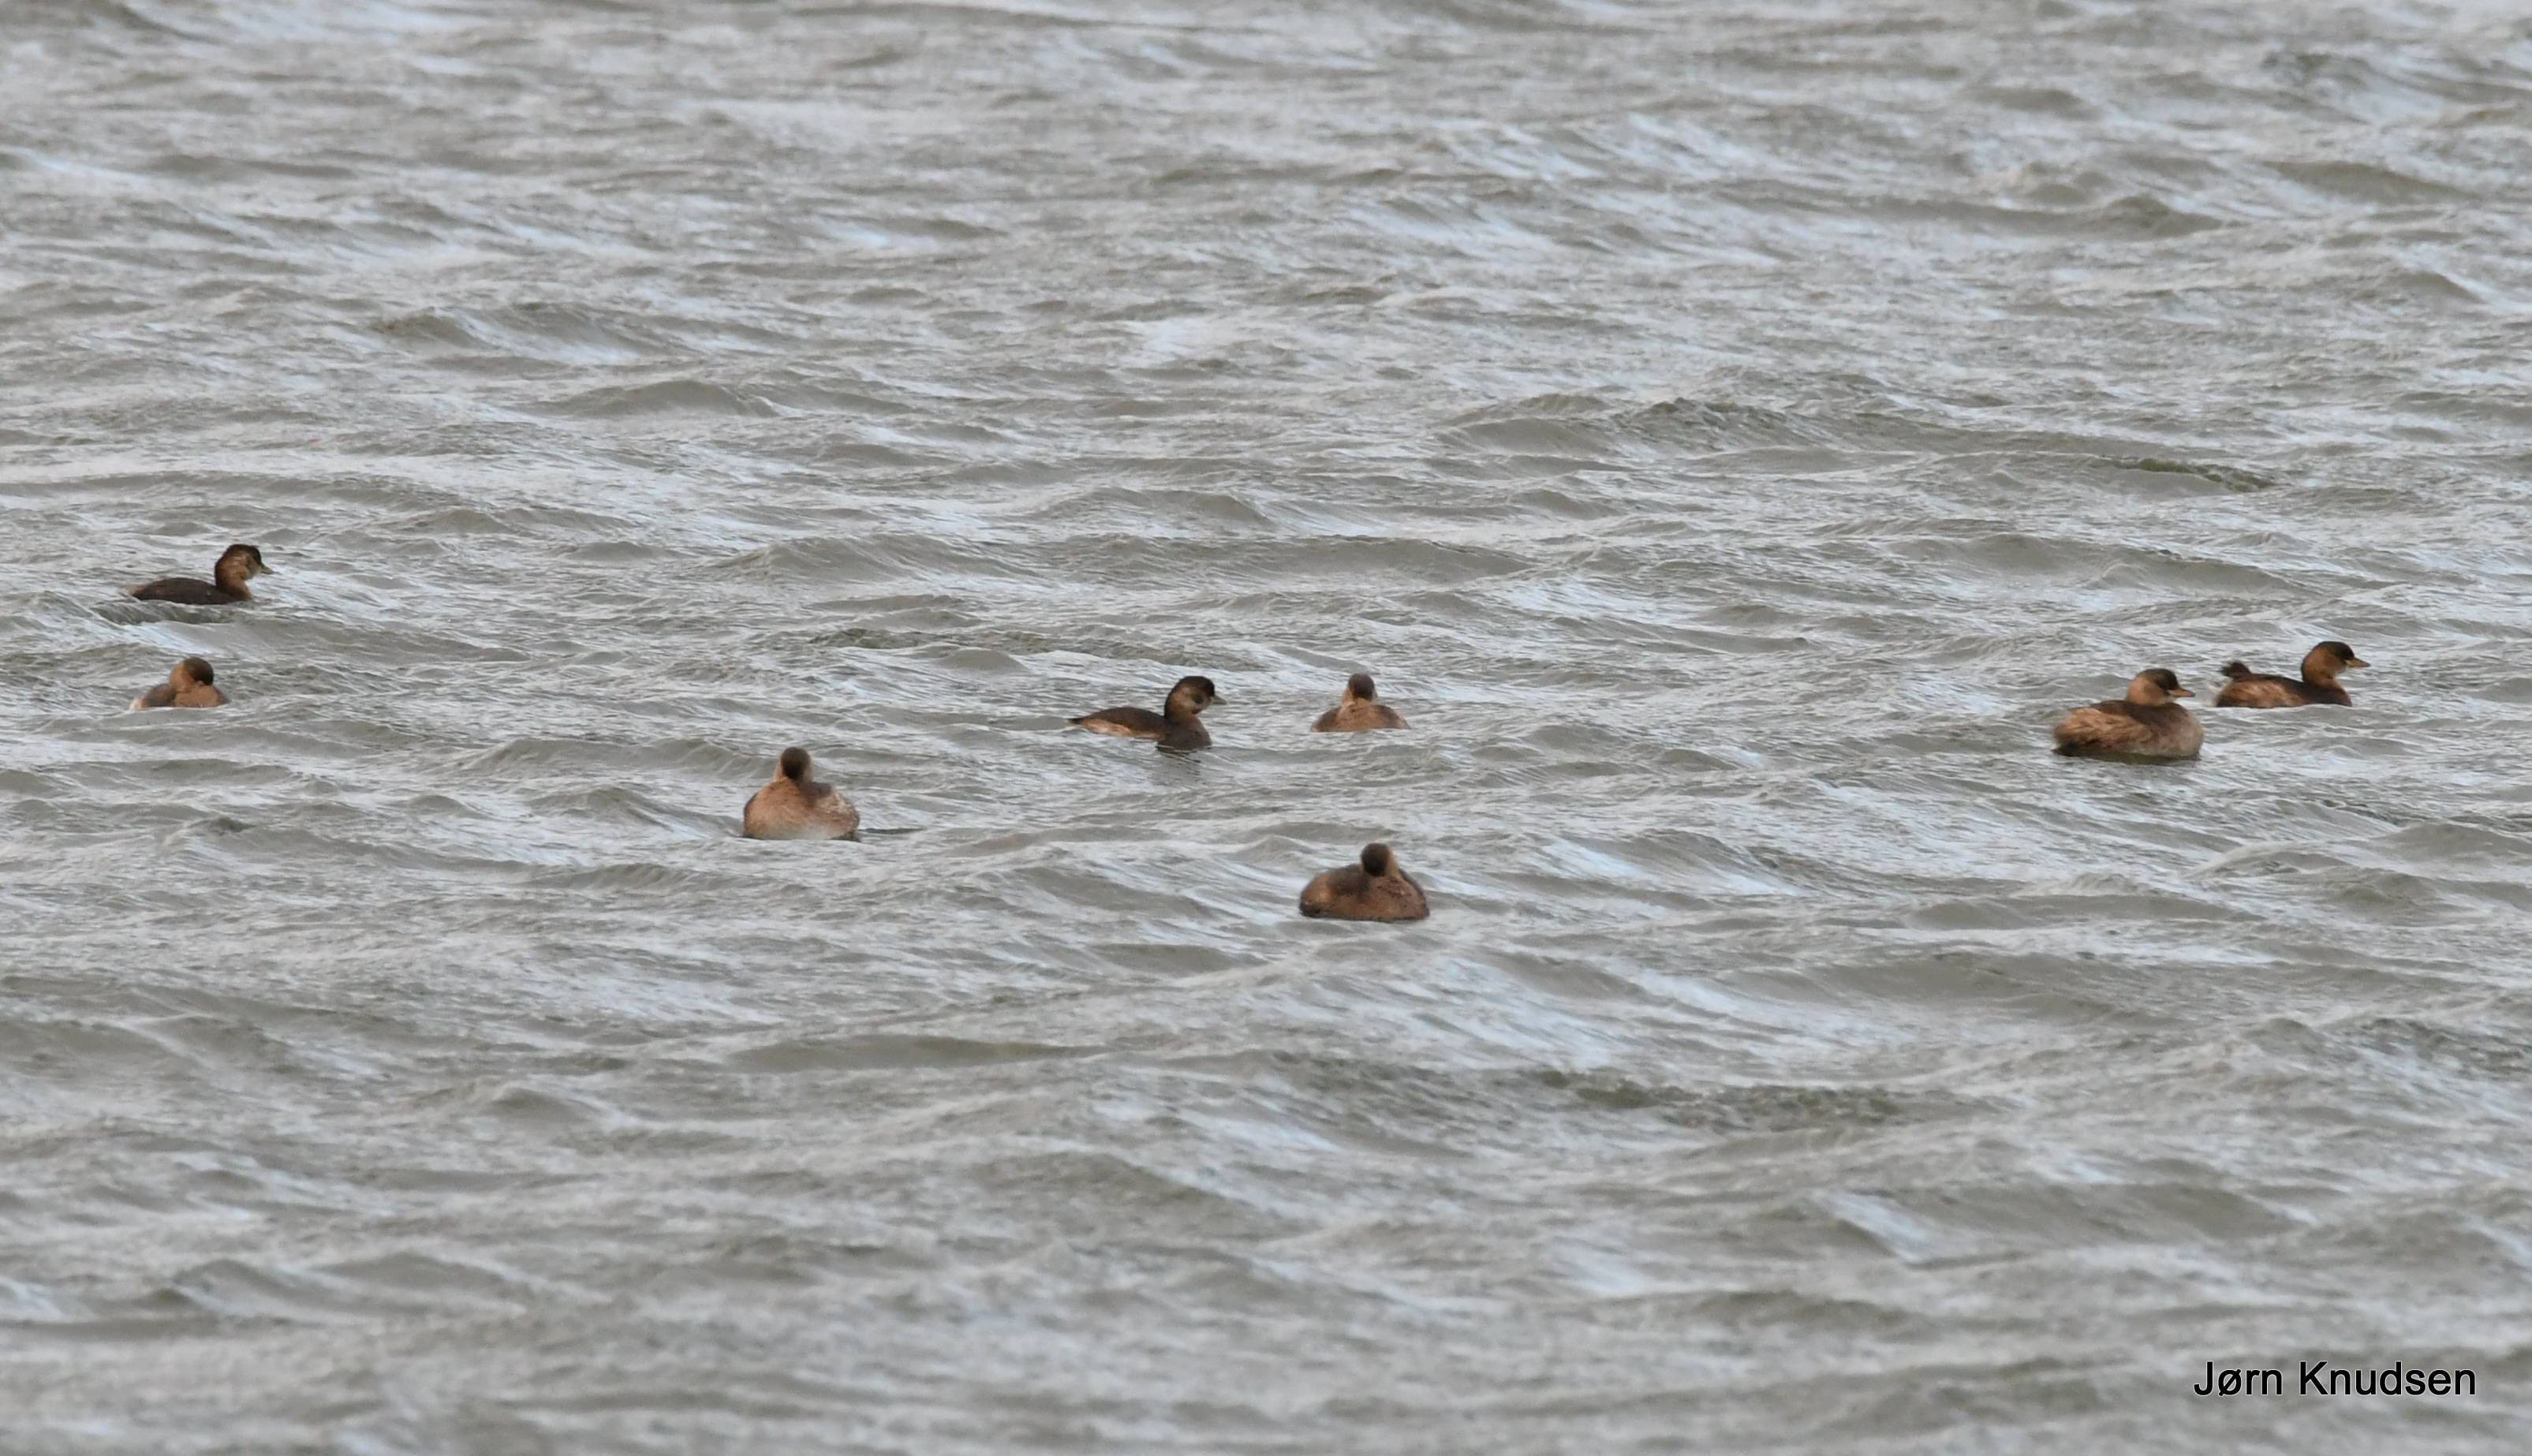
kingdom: Animalia
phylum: Chordata
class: Aves
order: Podicipediformes
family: Podicipedidae
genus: Tachybaptus
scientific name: Tachybaptus ruficollis
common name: Lille lappedykker
